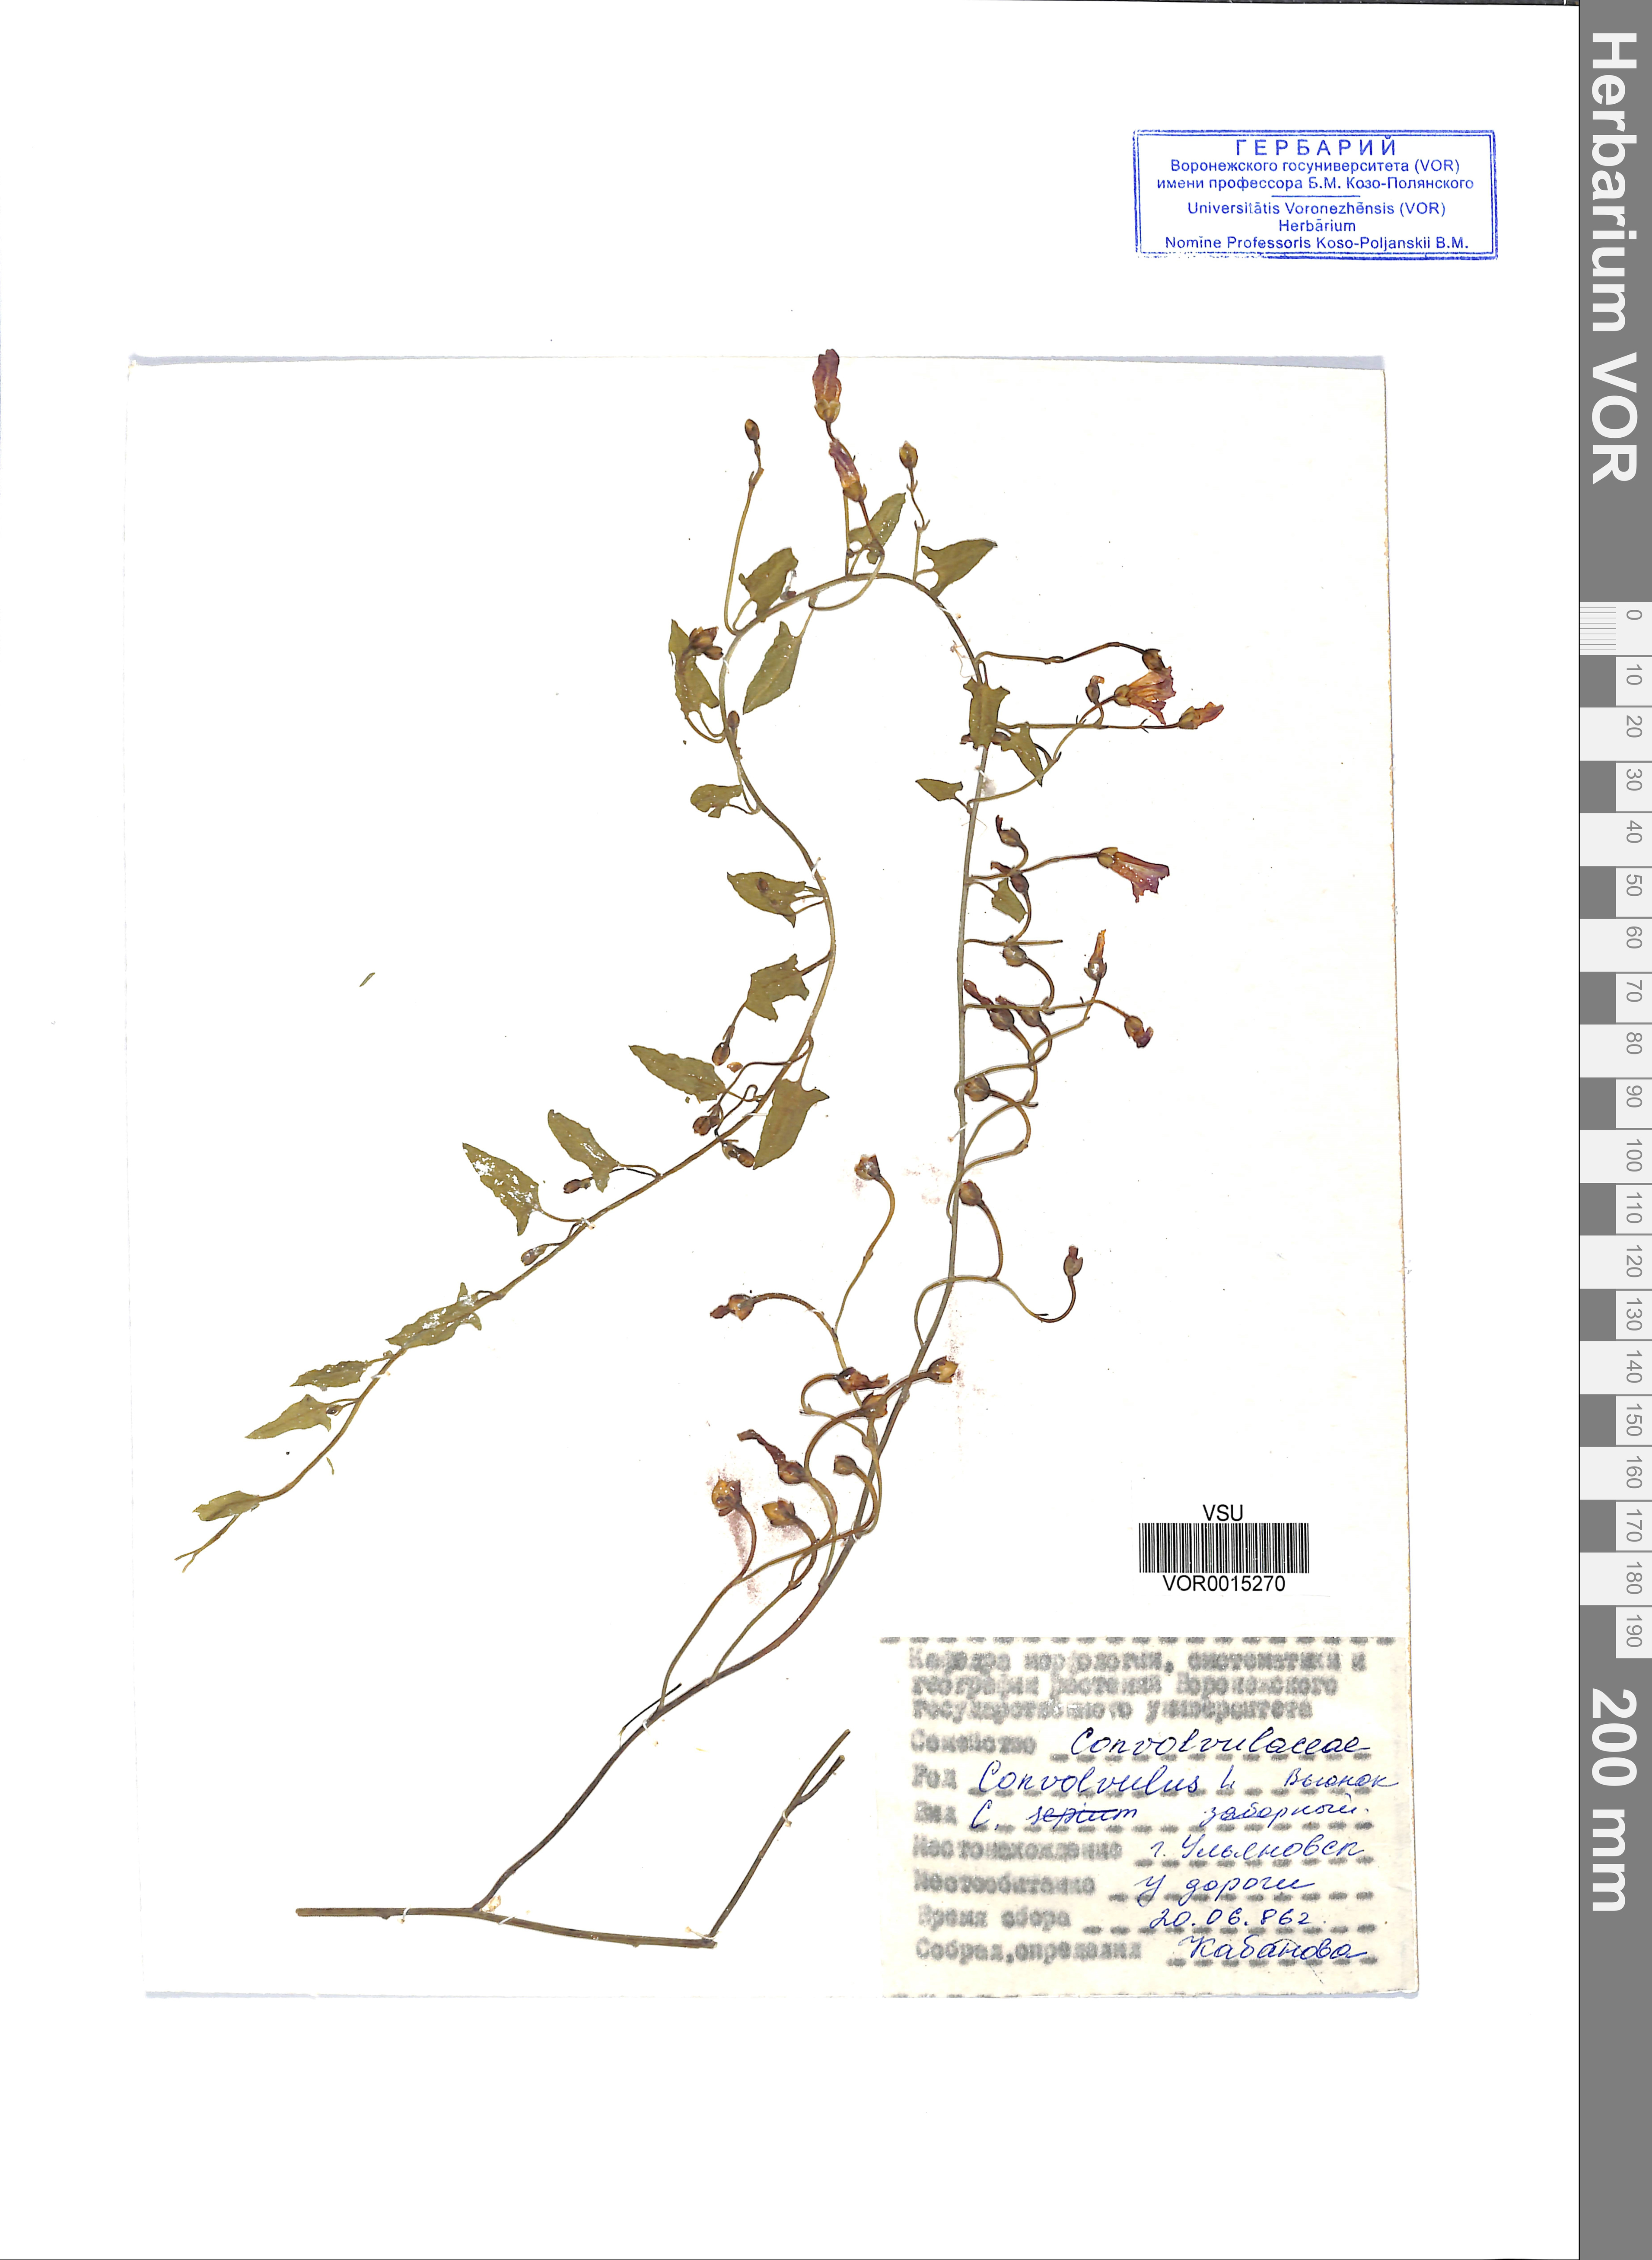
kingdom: Plantae
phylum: Tracheophyta
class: Magnoliopsida
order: Solanales
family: Convolvulaceae
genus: Calystegia
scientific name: Calystegia sepium
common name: Hedge bindweed
